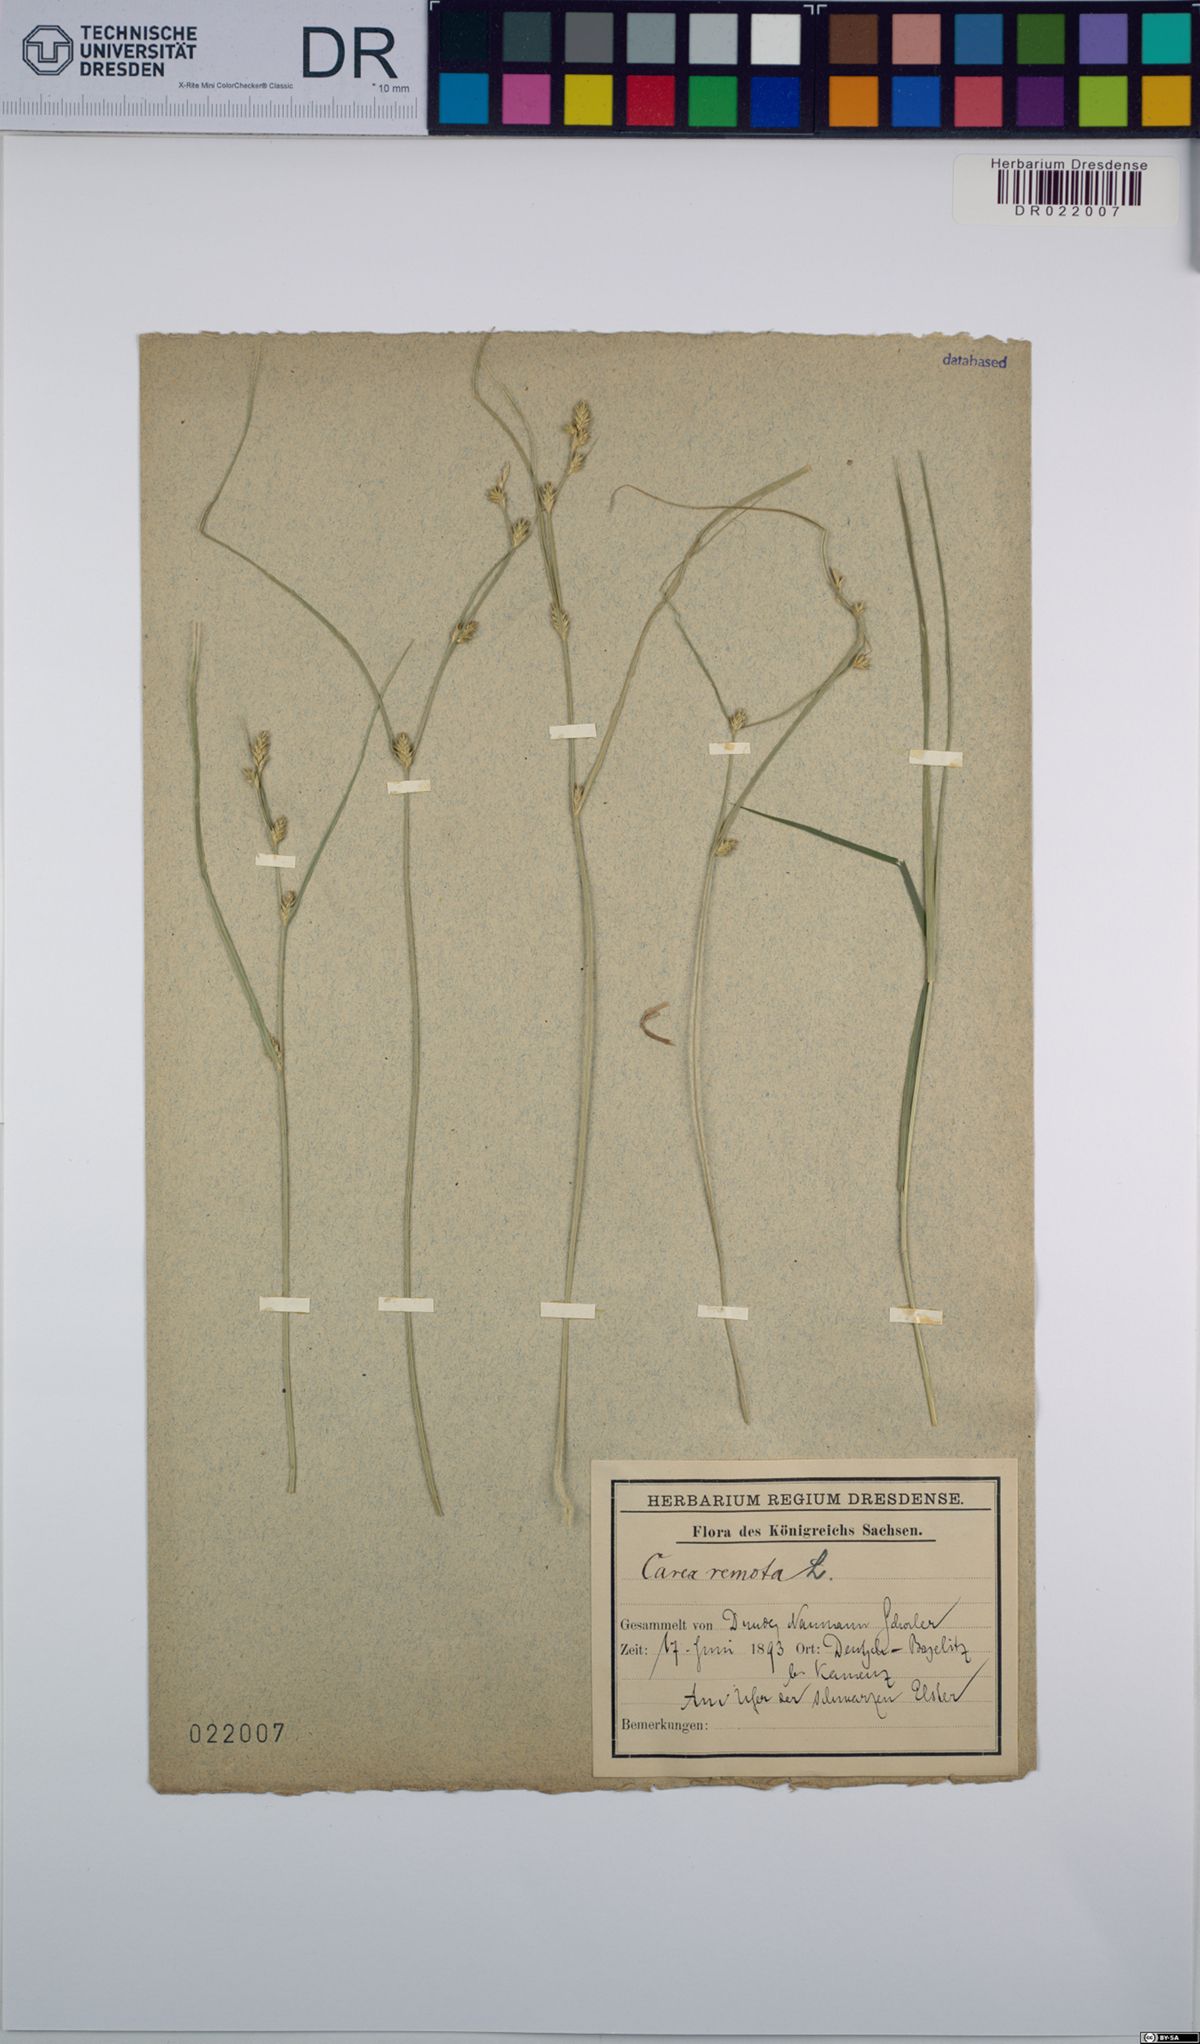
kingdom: Plantae
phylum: Tracheophyta
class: Liliopsida
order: Poales
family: Cyperaceae
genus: Carex
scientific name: Carex remota
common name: Remote sedge
